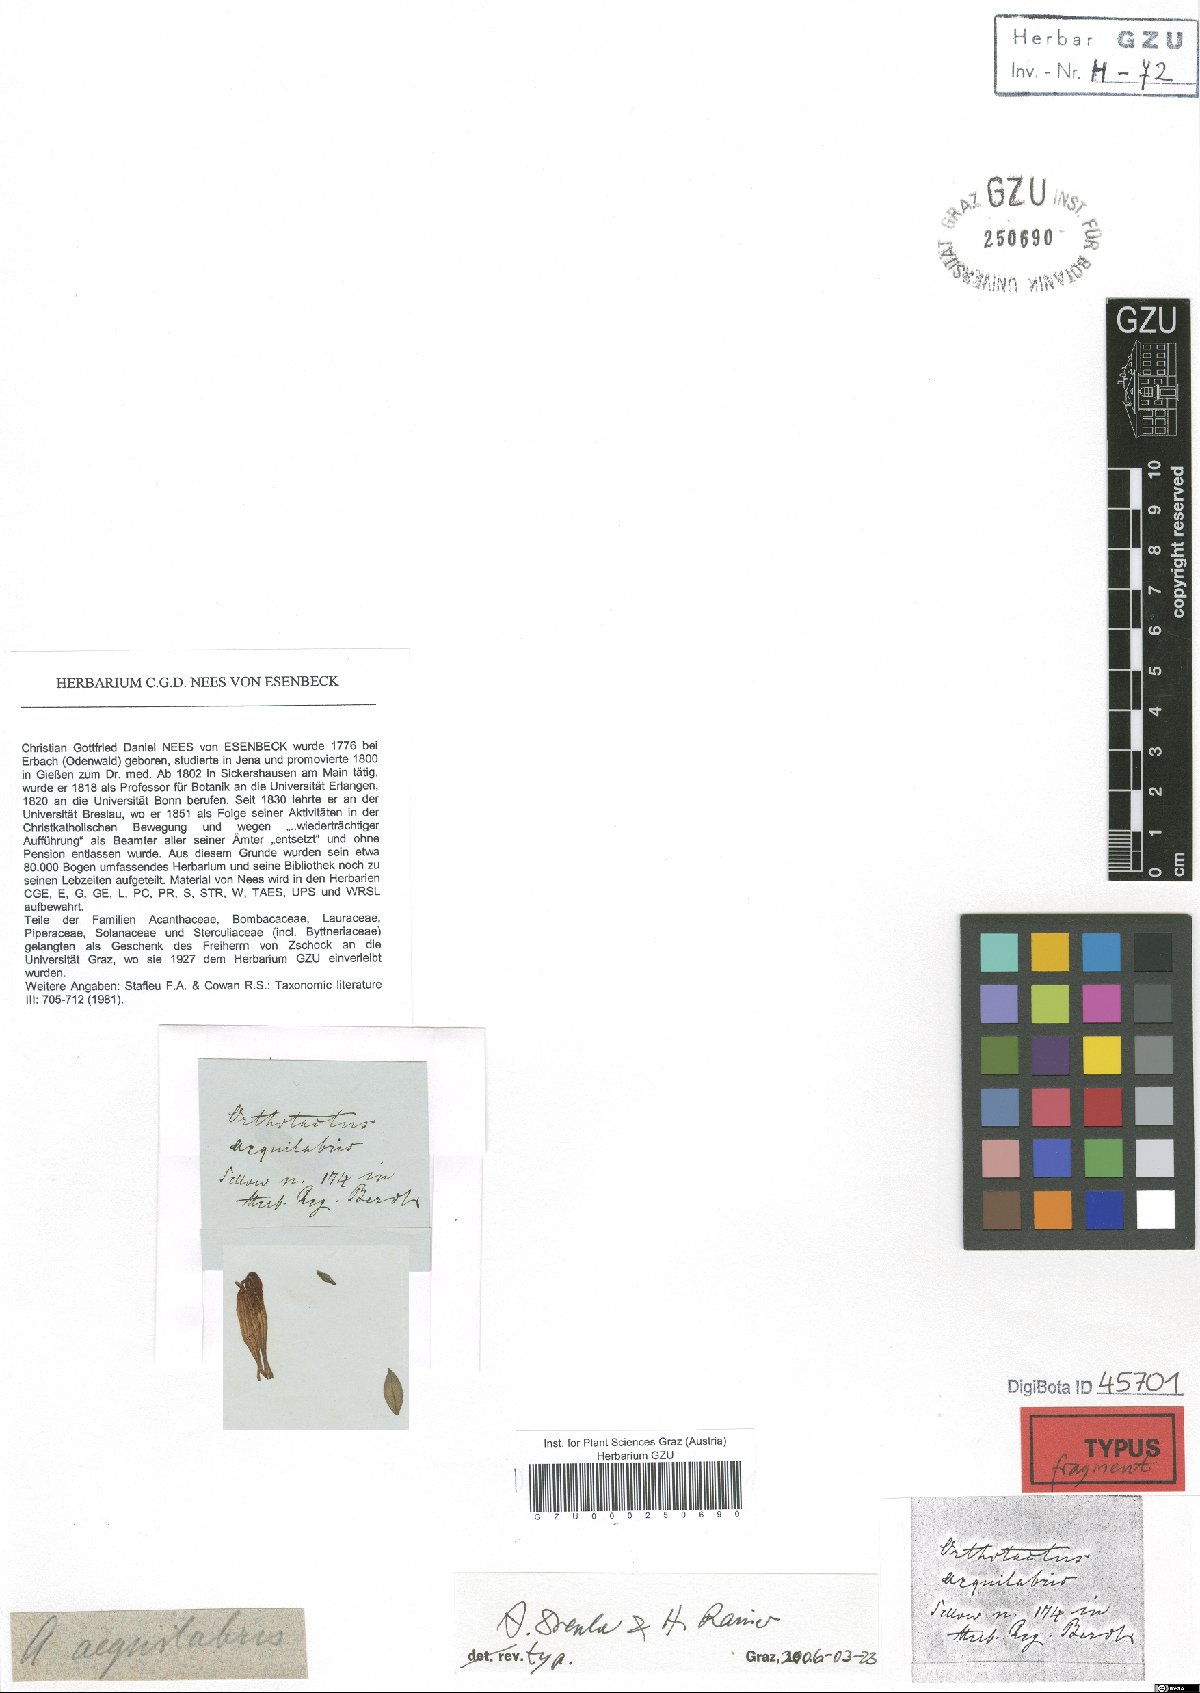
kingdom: Plantae
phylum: Tracheophyta
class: Magnoliopsida
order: Lamiales
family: Acanthaceae
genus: Justicia
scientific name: Justicia aequilabris
